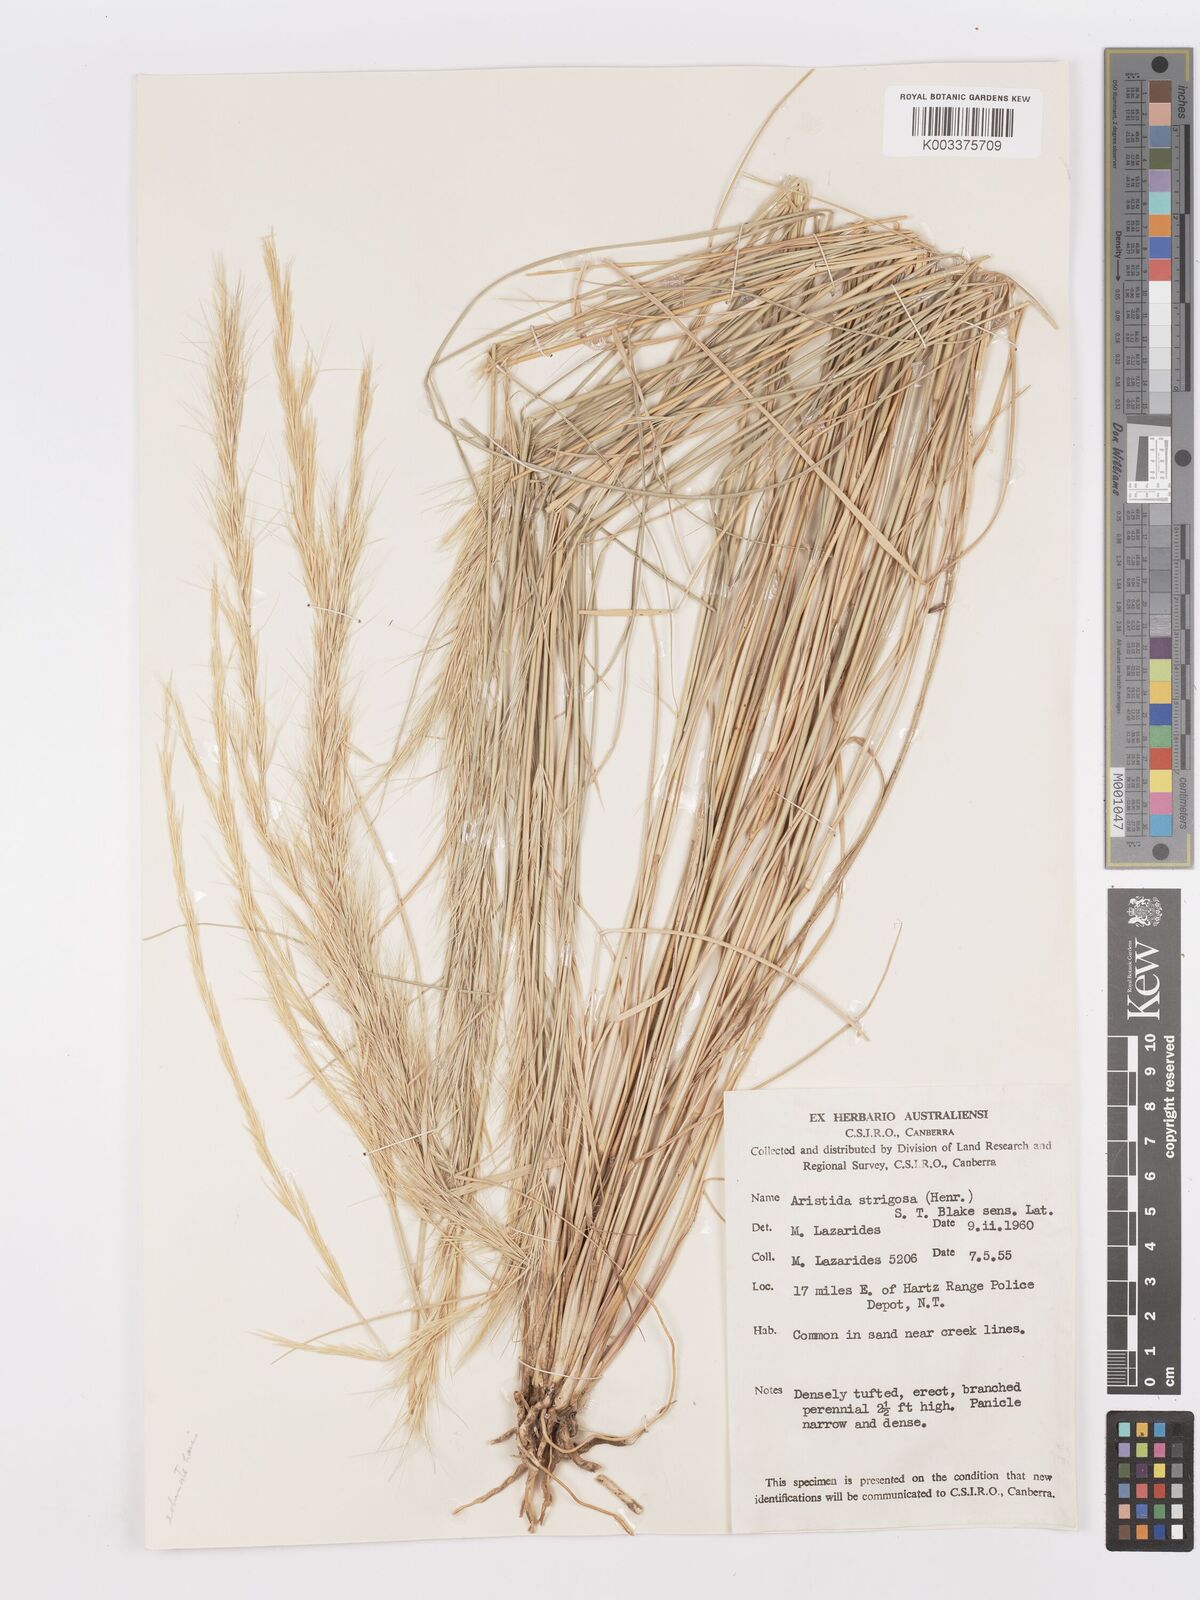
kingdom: Plantae
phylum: Tracheophyta
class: Liliopsida
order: Poales
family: Poaceae
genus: Aristida
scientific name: Aristida strigosa
